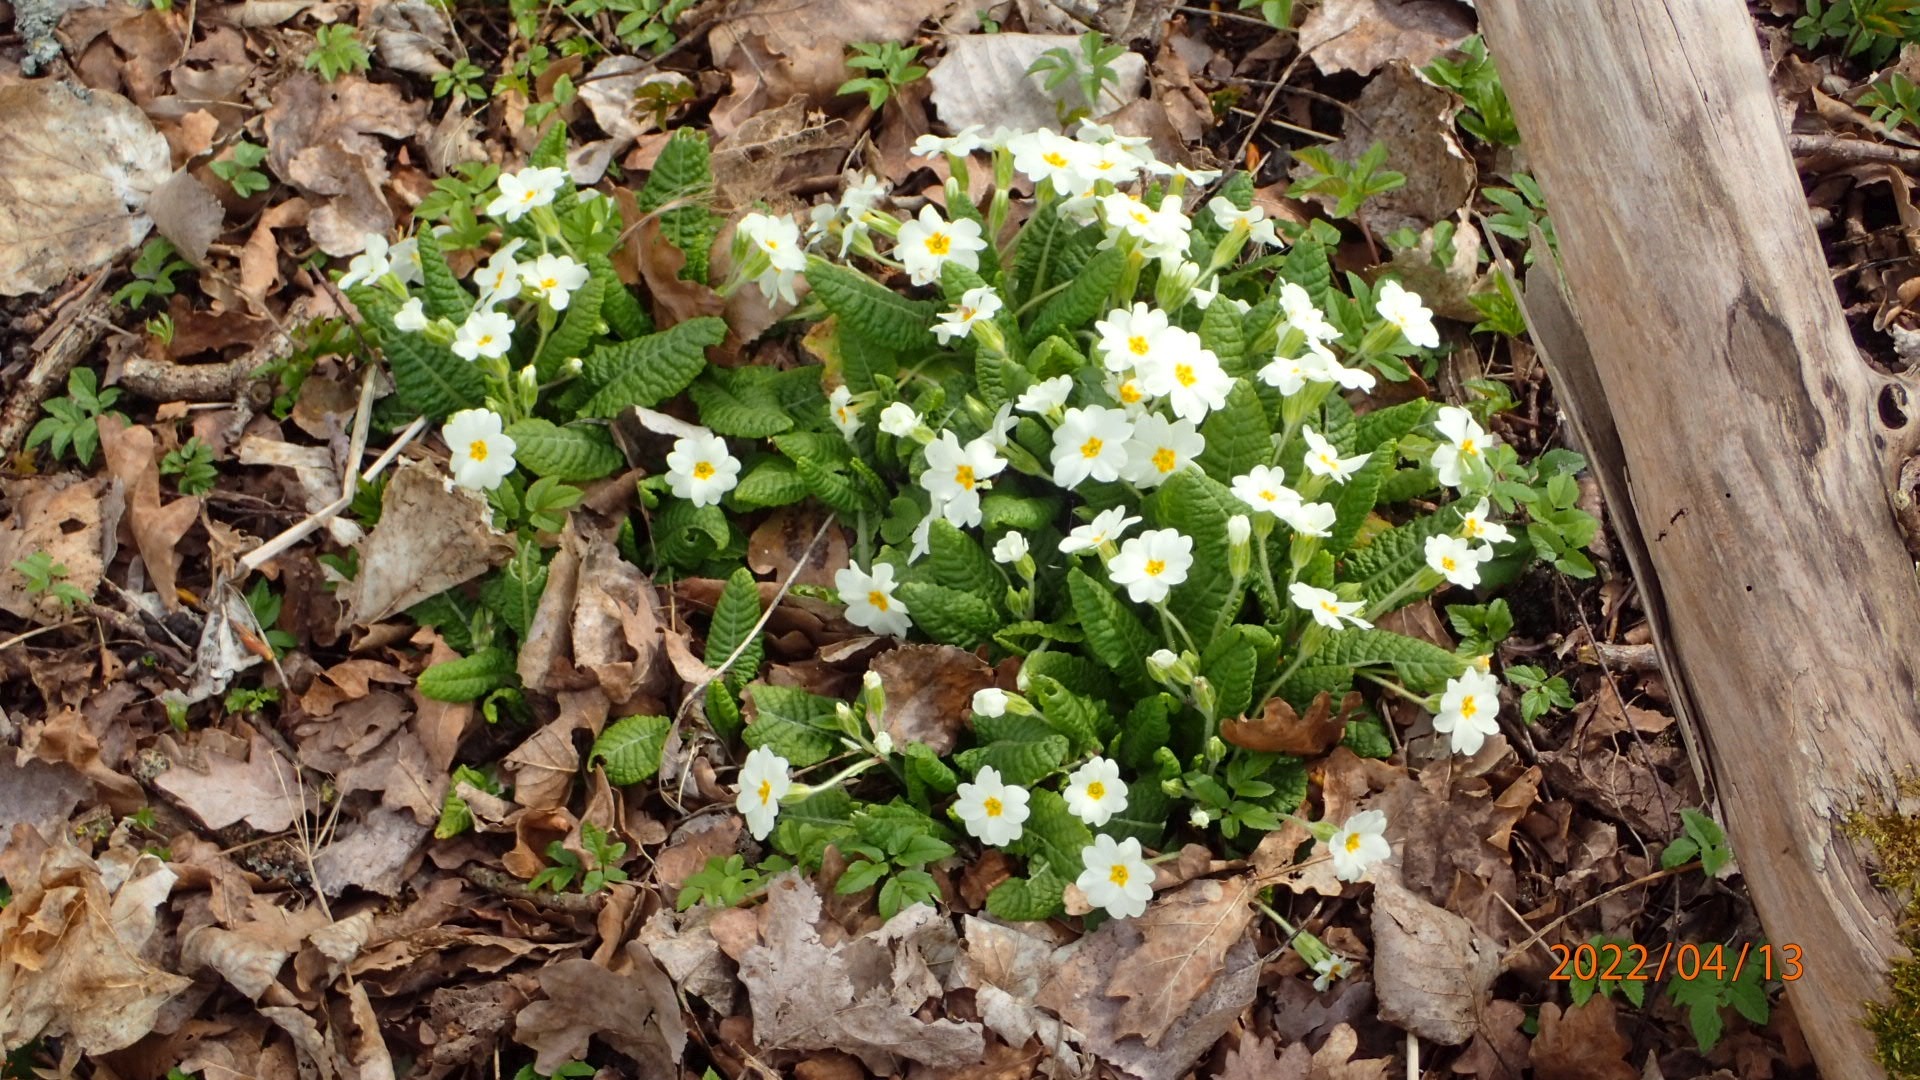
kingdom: Plantae
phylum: Tracheophyta
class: Magnoliopsida
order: Ericales
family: Primulaceae
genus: Primula
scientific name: Primula vulgaris
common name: Storblomstret kodriver
